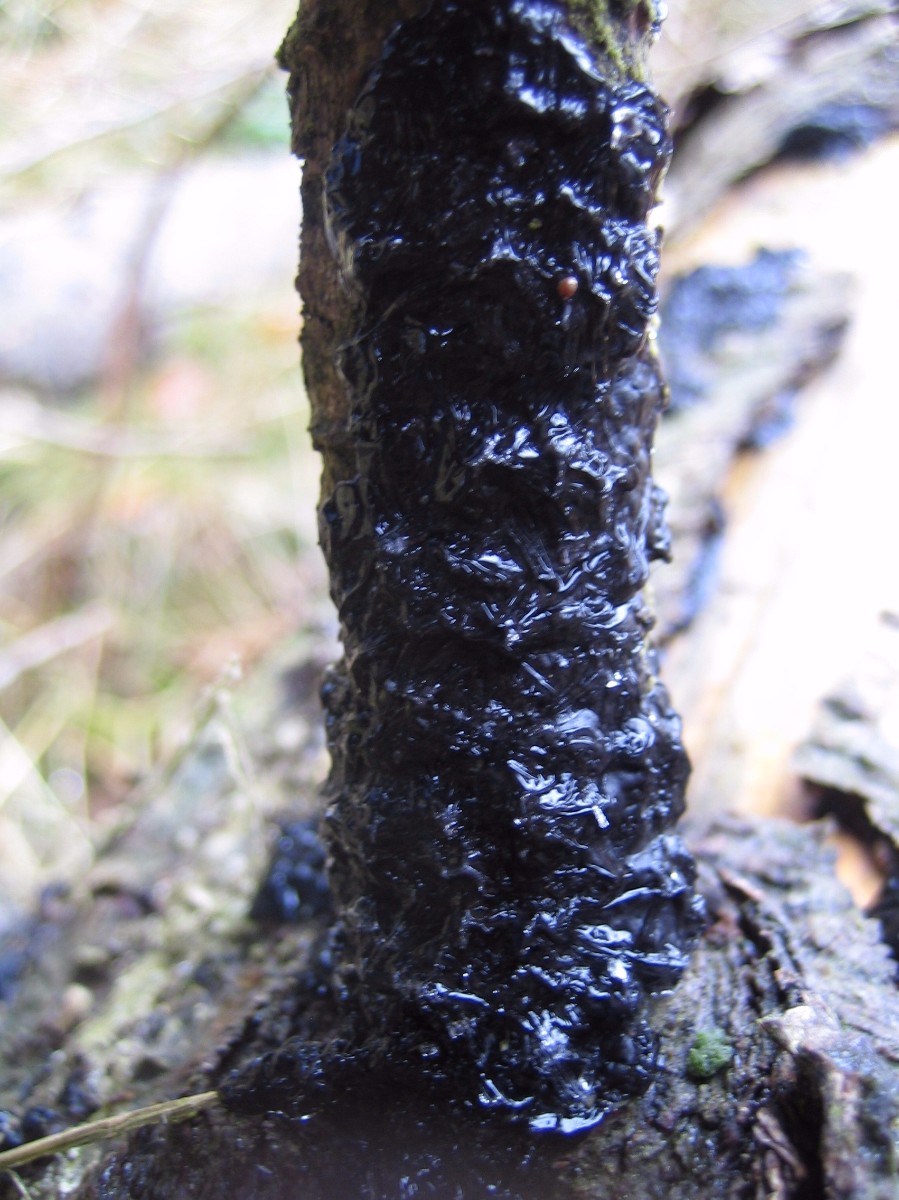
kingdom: Fungi
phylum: Basidiomycota
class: Agaricomycetes
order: Auriculariales
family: Auriculariaceae
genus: Exidia
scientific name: Exidia pithya
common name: gran-bævretop
